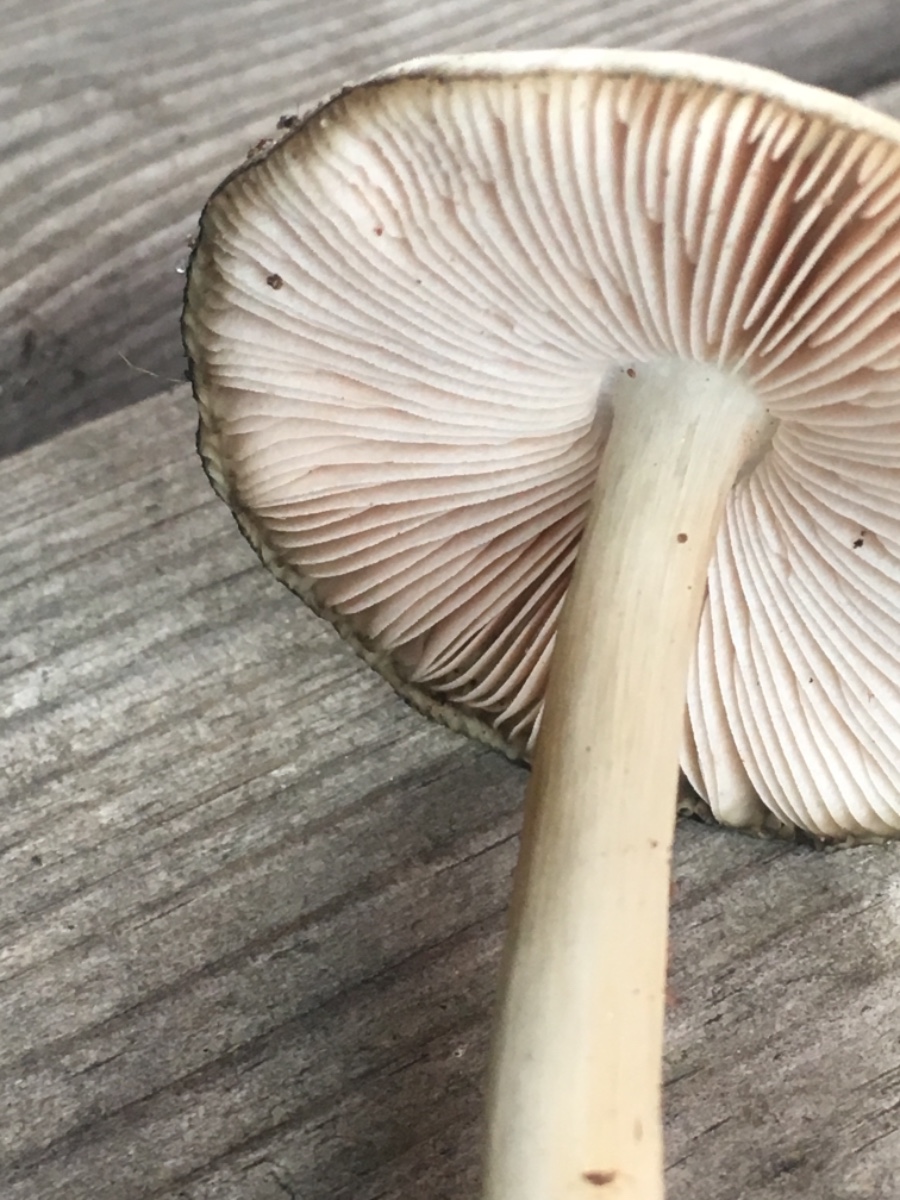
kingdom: Fungi
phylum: Basidiomycota
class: Agaricomycetes
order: Agaricales
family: Pluteaceae
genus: Pluteus
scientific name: Pluteus salicinus
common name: stiv skærmhat
